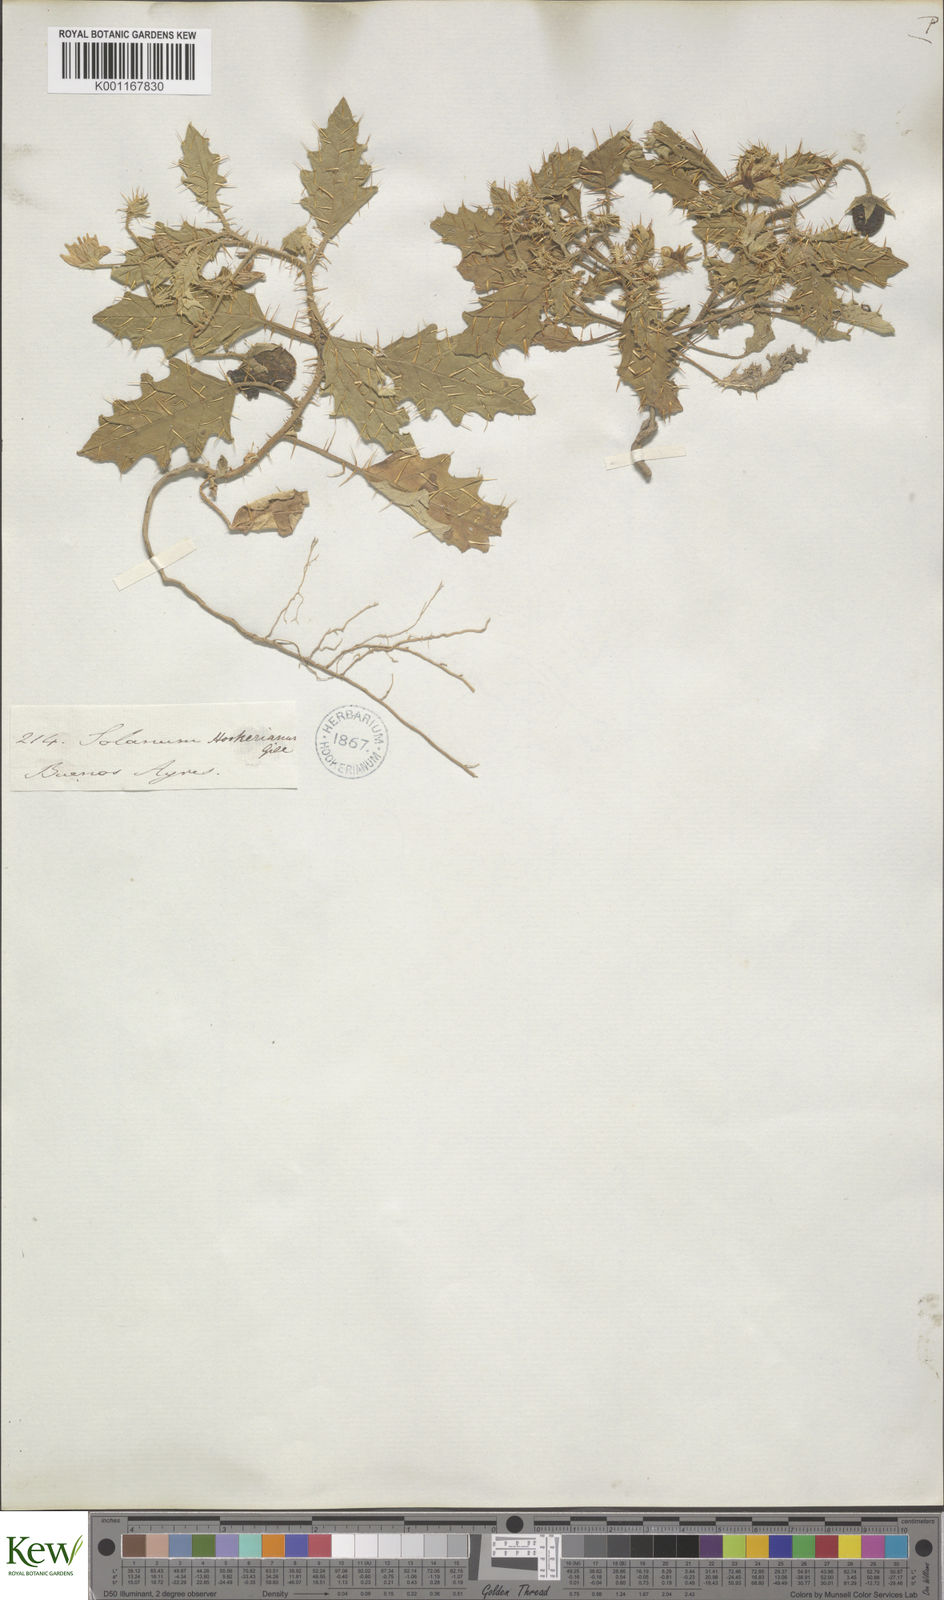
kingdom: Plantae
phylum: Tracheophyta
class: Magnoliopsida
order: Solanales
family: Solanaceae
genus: Solanum
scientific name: Solanum juvenale
